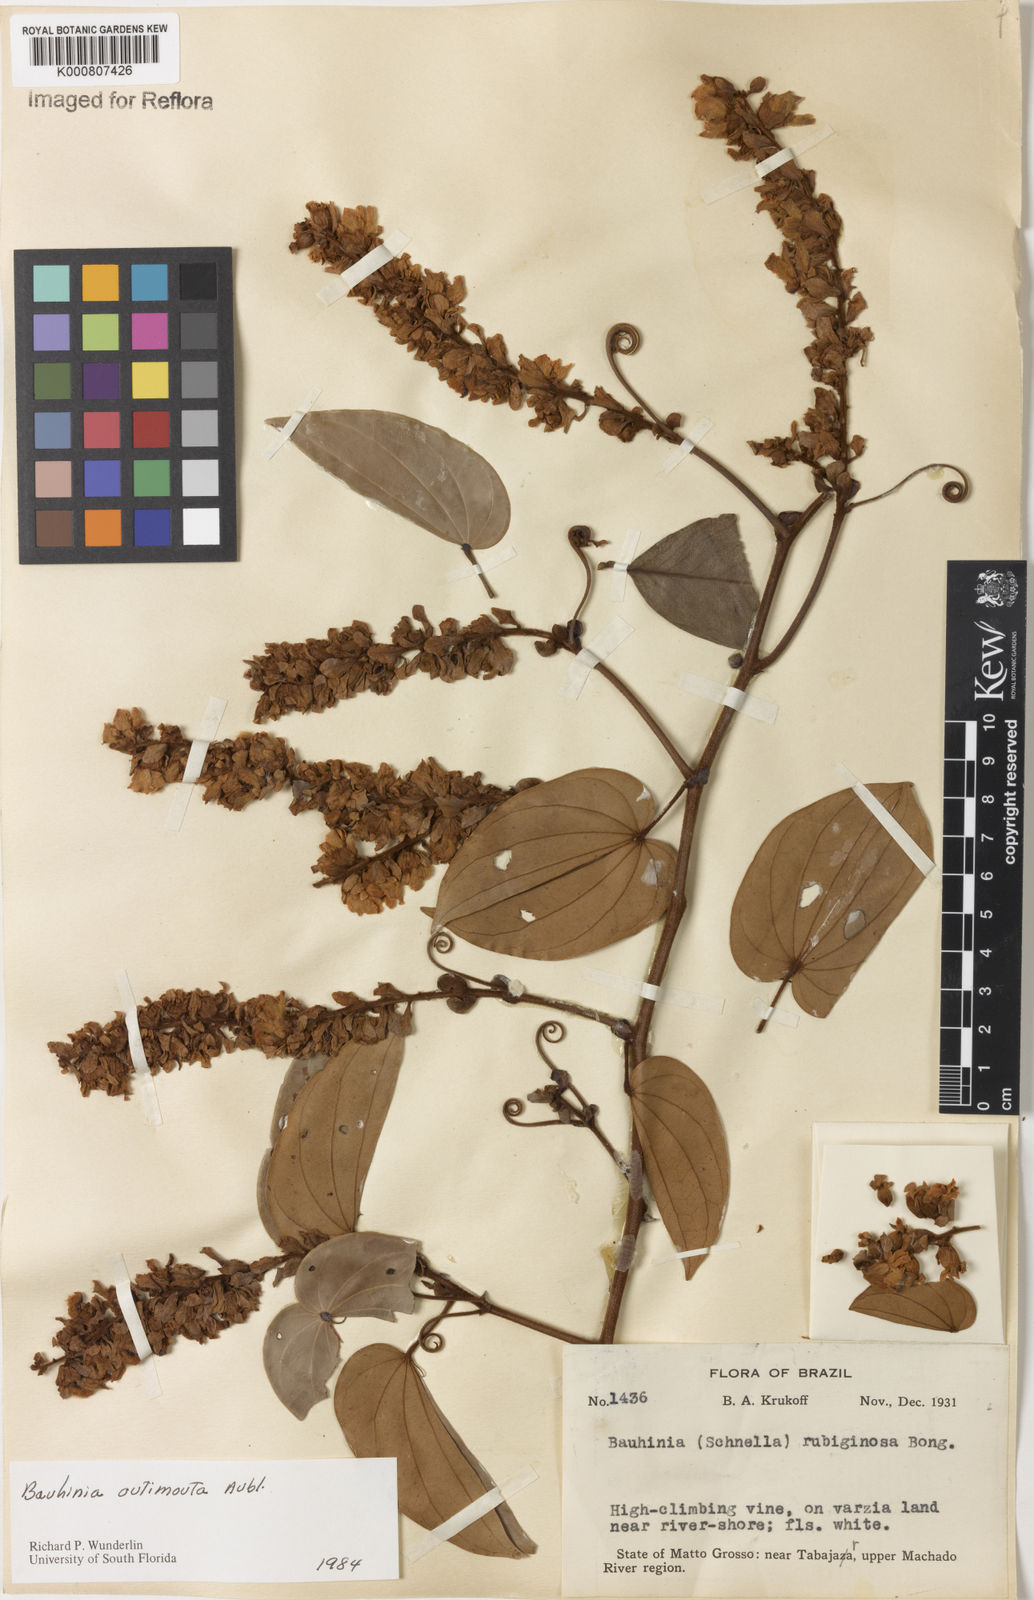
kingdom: Plantae
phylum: Tracheophyta
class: Magnoliopsida
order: Fabales
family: Fabaceae
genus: Schnella
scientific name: Schnella outimouta
